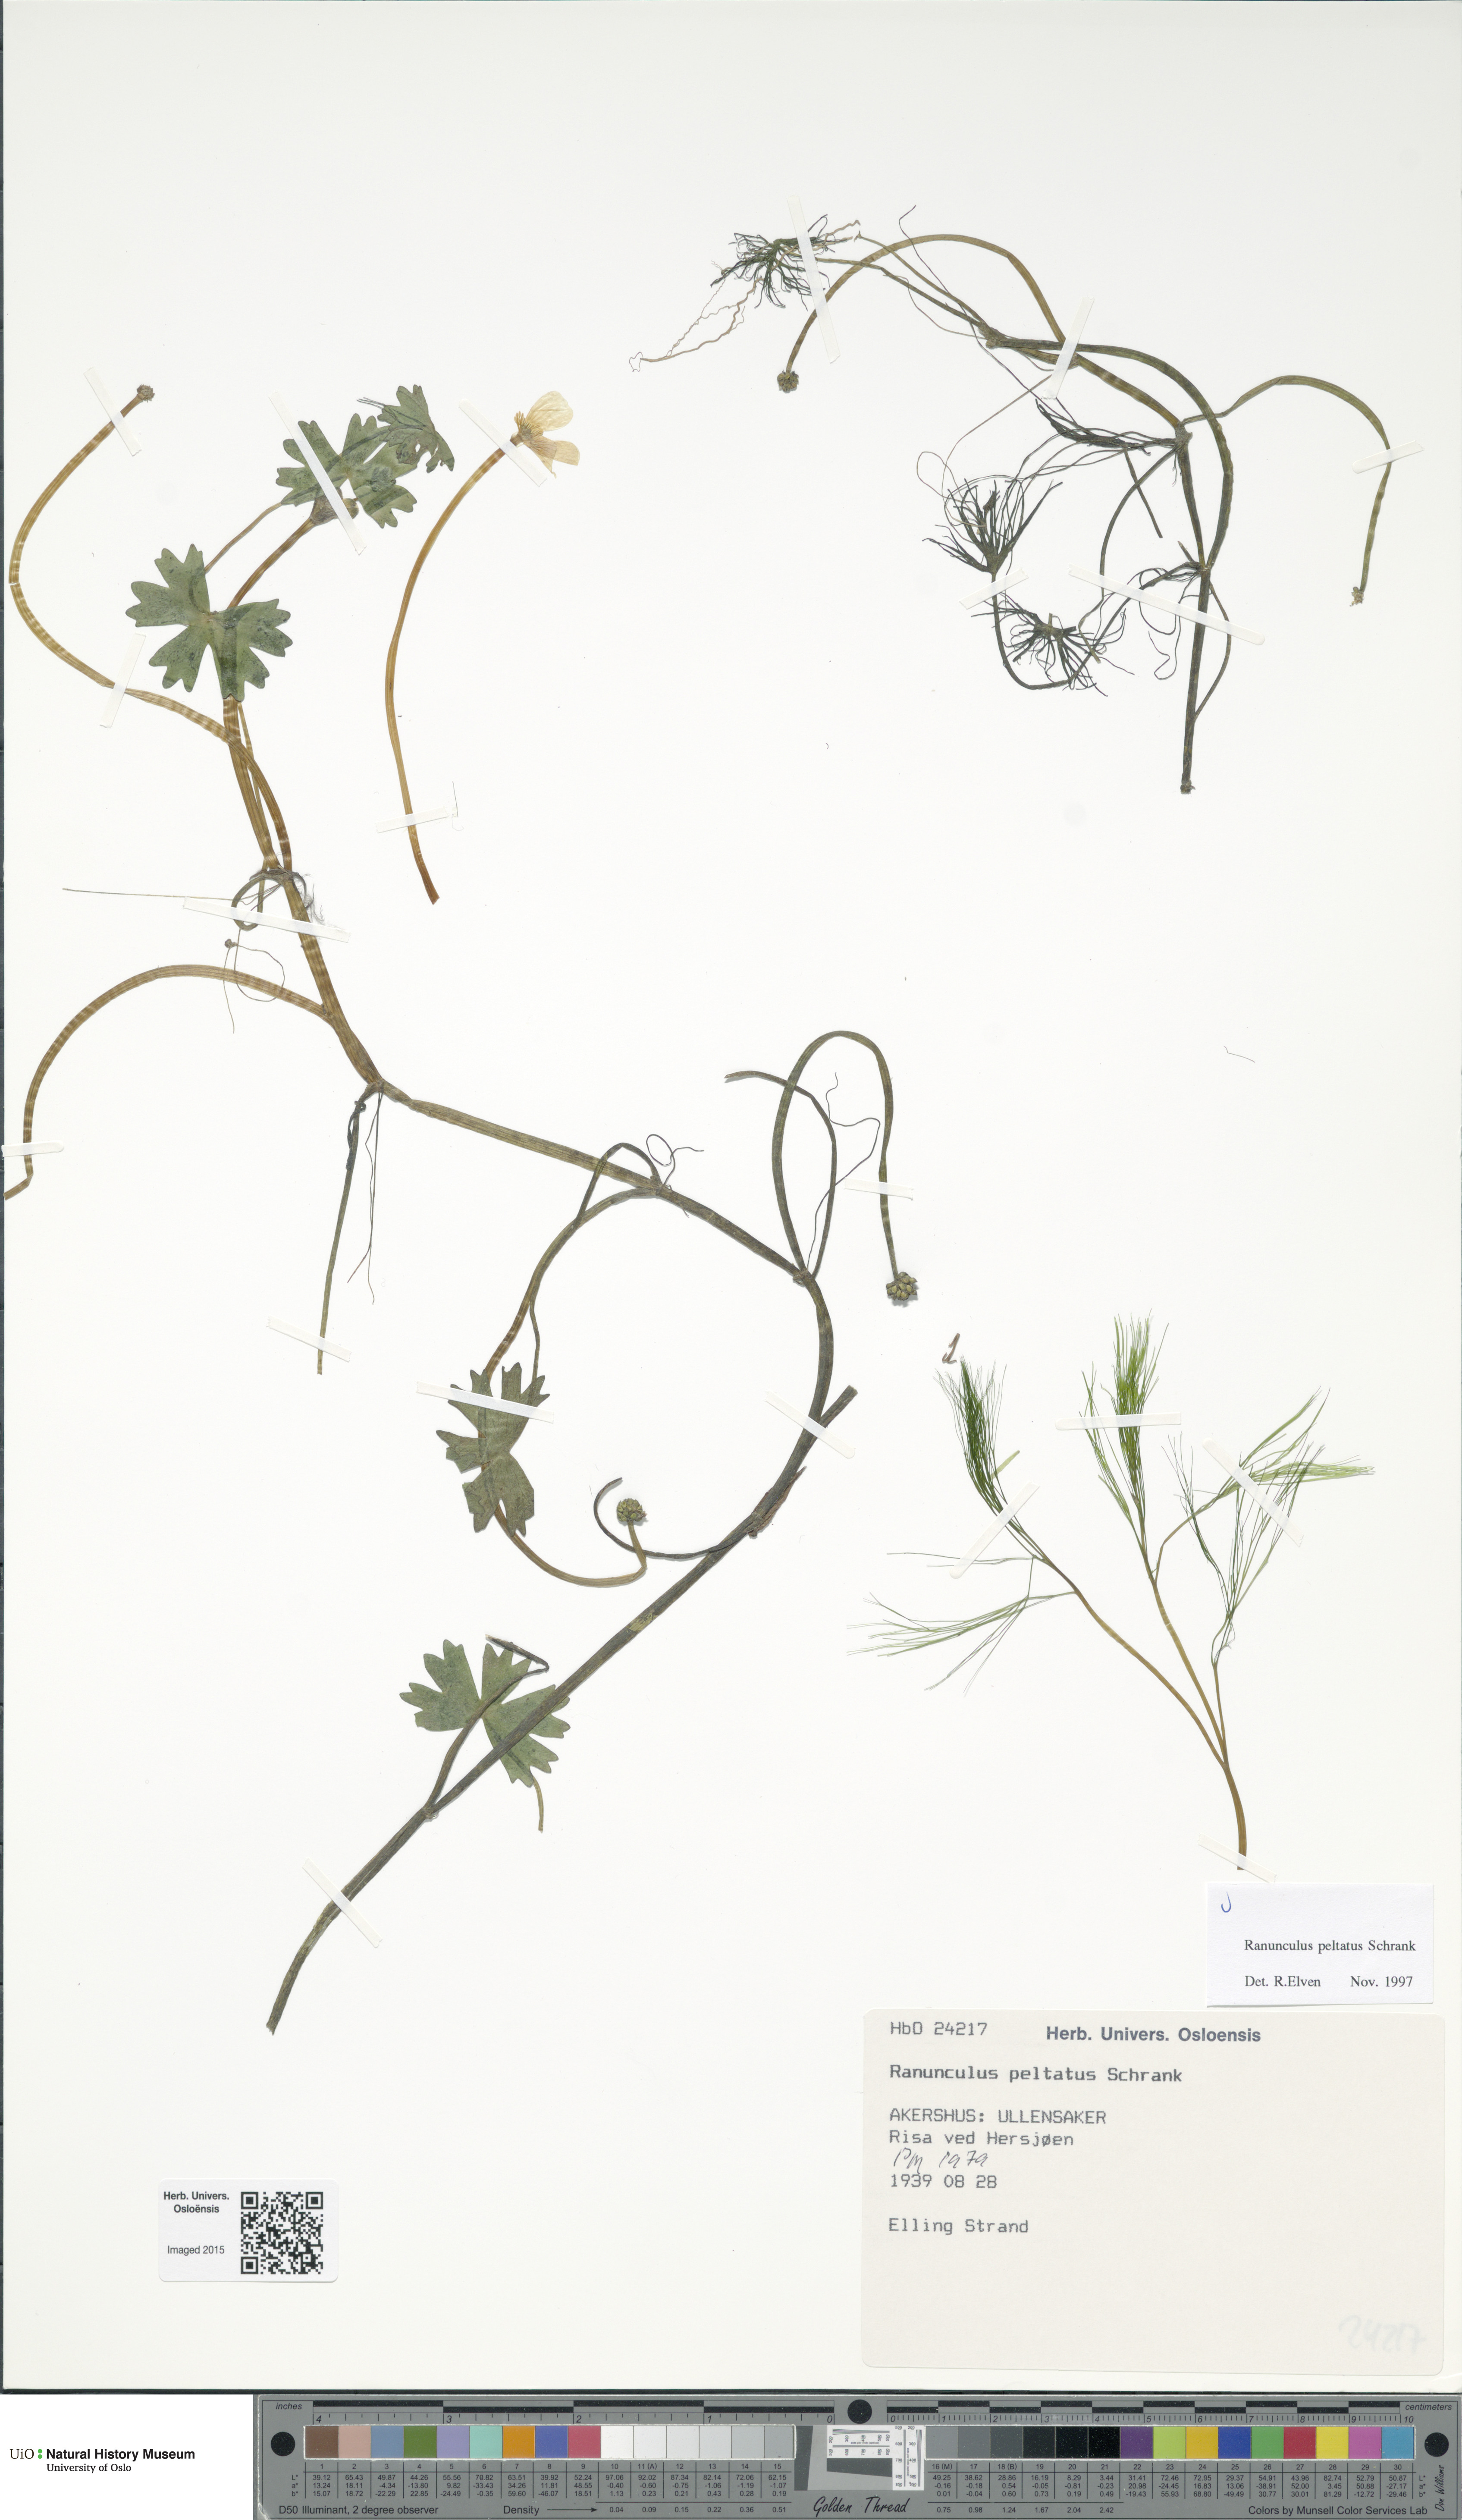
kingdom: Plantae
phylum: Tracheophyta
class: Magnoliopsida
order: Ranunculales
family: Ranunculaceae
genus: Ranunculus
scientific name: Ranunculus peltatus
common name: Pond water-crowfoot
